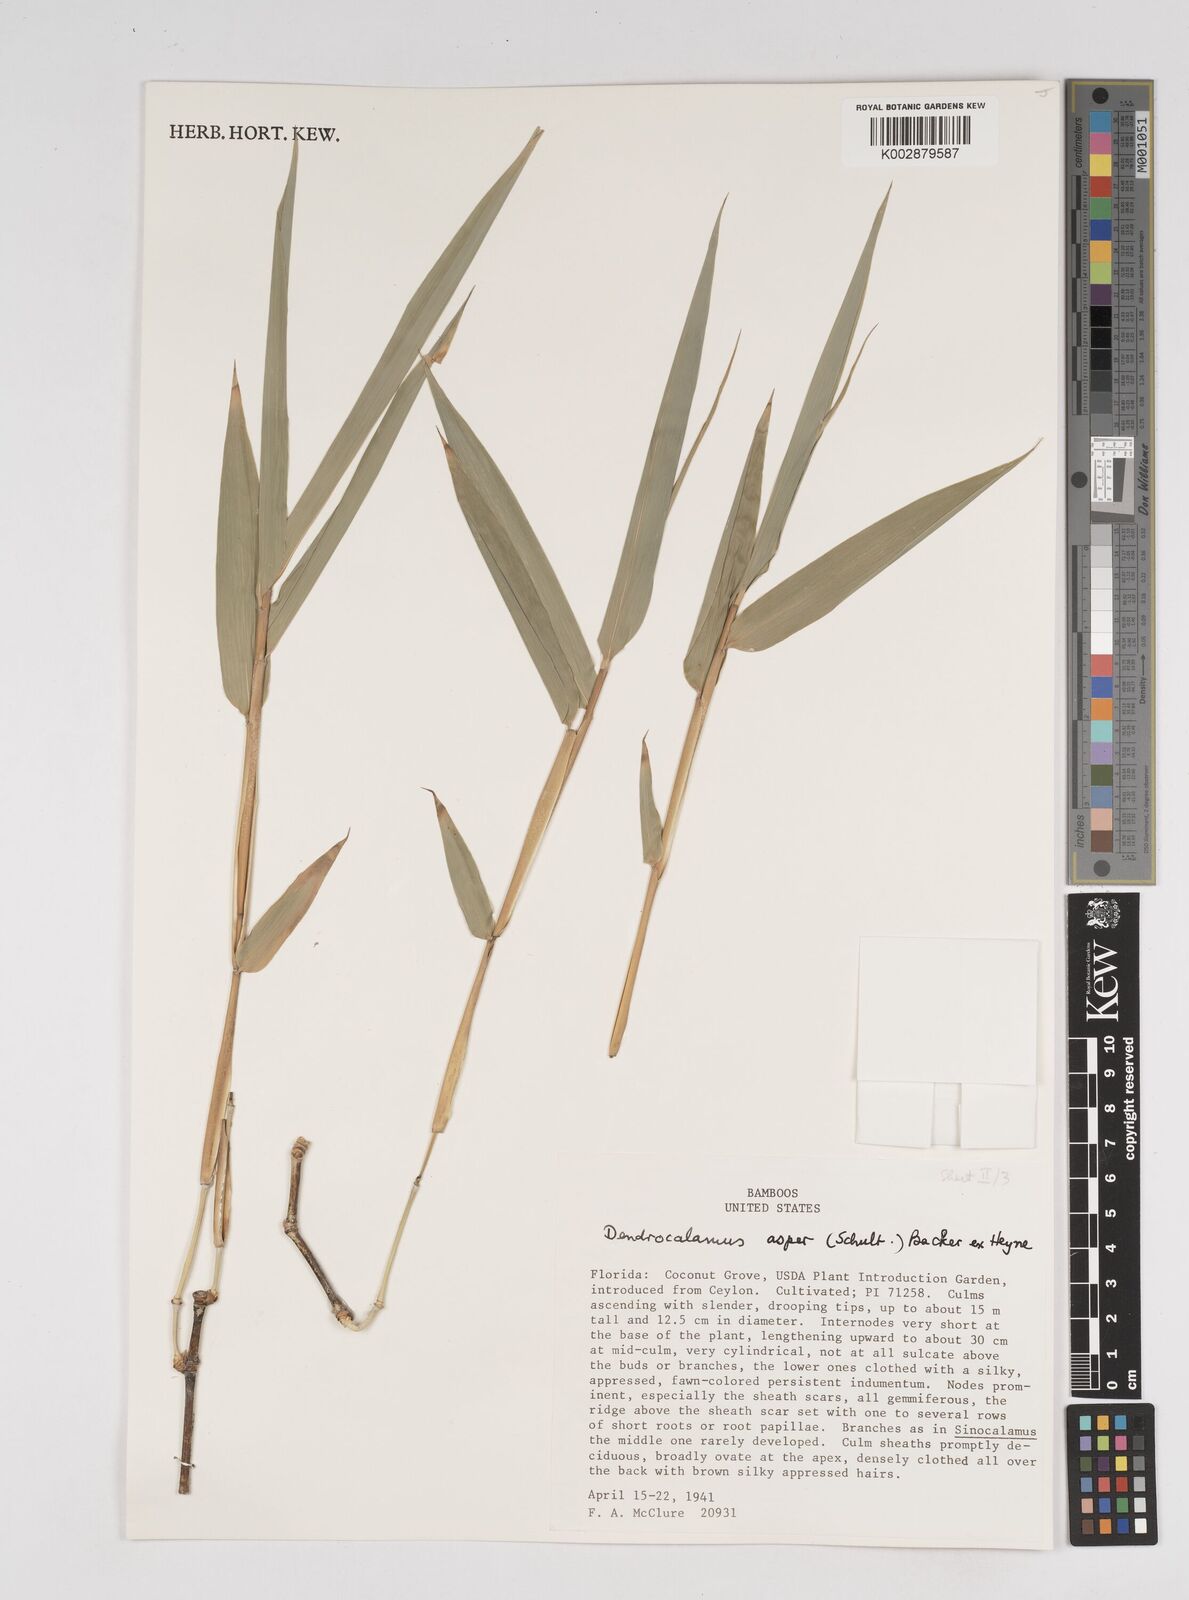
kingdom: Plantae
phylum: Tracheophyta
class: Liliopsida
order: Poales
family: Poaceae
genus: Dendrocalamus
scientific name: Dendrocalamus asper
